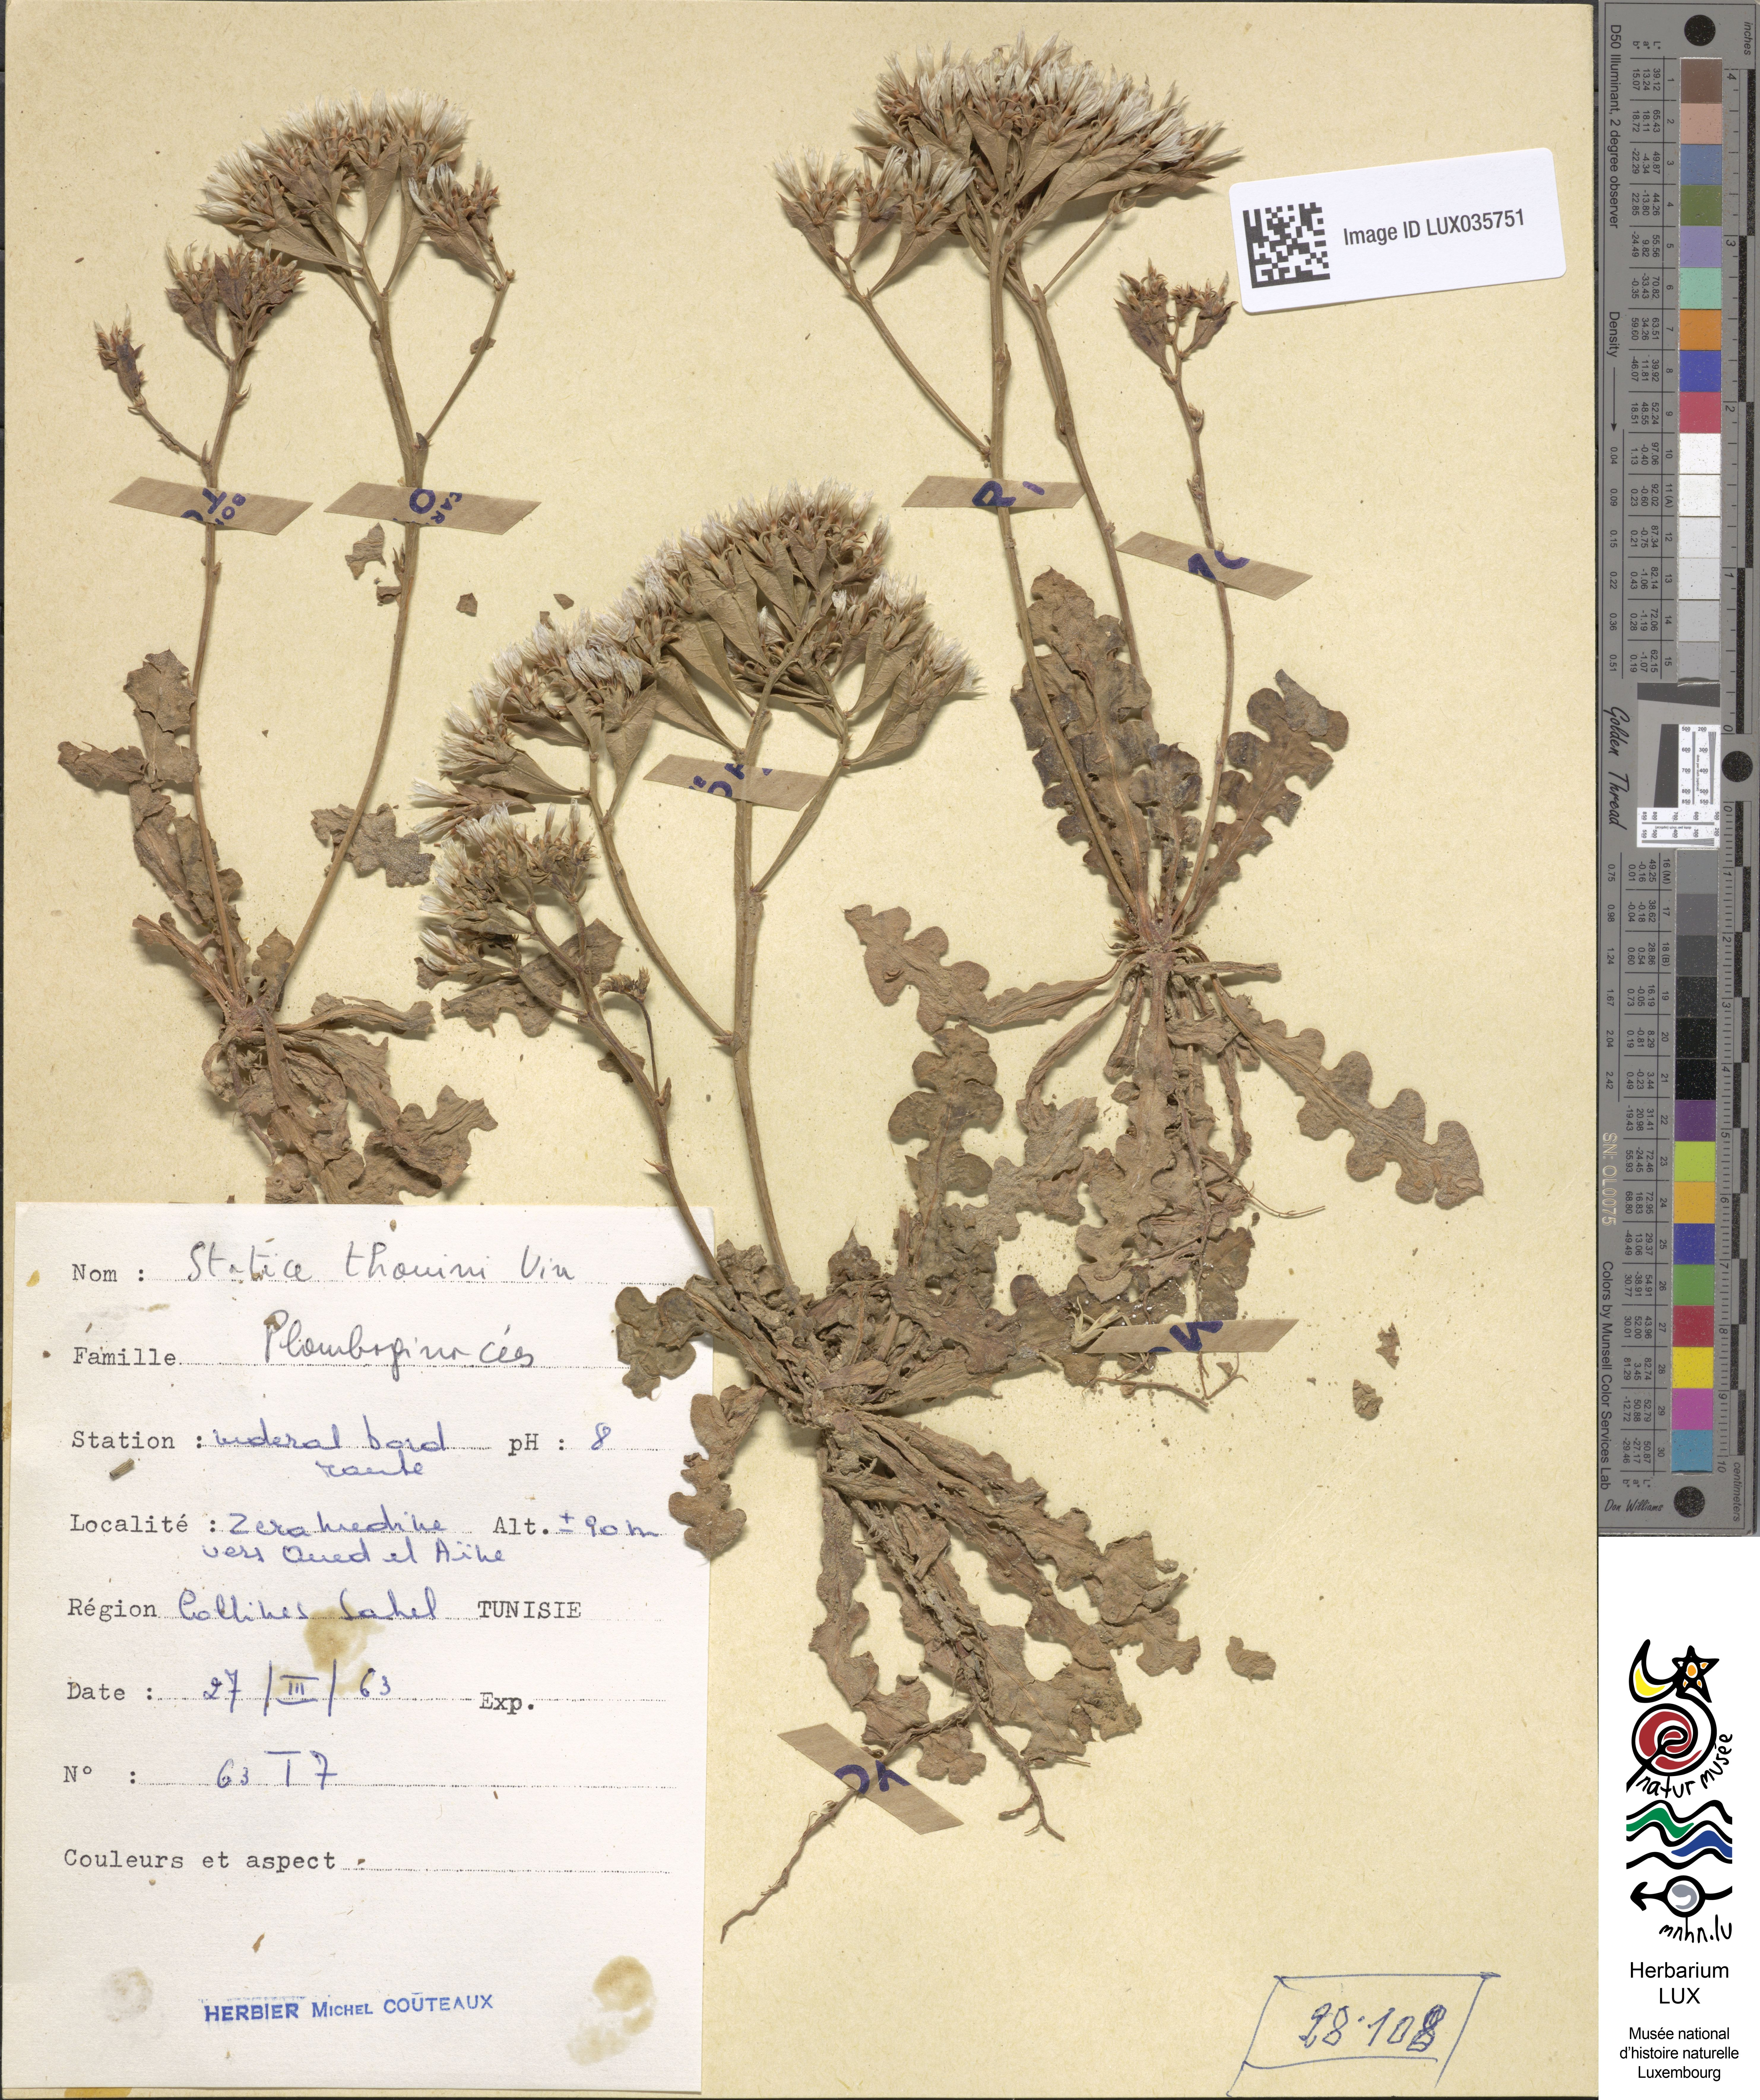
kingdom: Plantae
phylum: Tracheophyta
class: Magnoliopsida
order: Caryophyllales
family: Plumbaginaceae
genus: Limonium
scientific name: Limonium lobatum
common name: Winged sea-lavender
